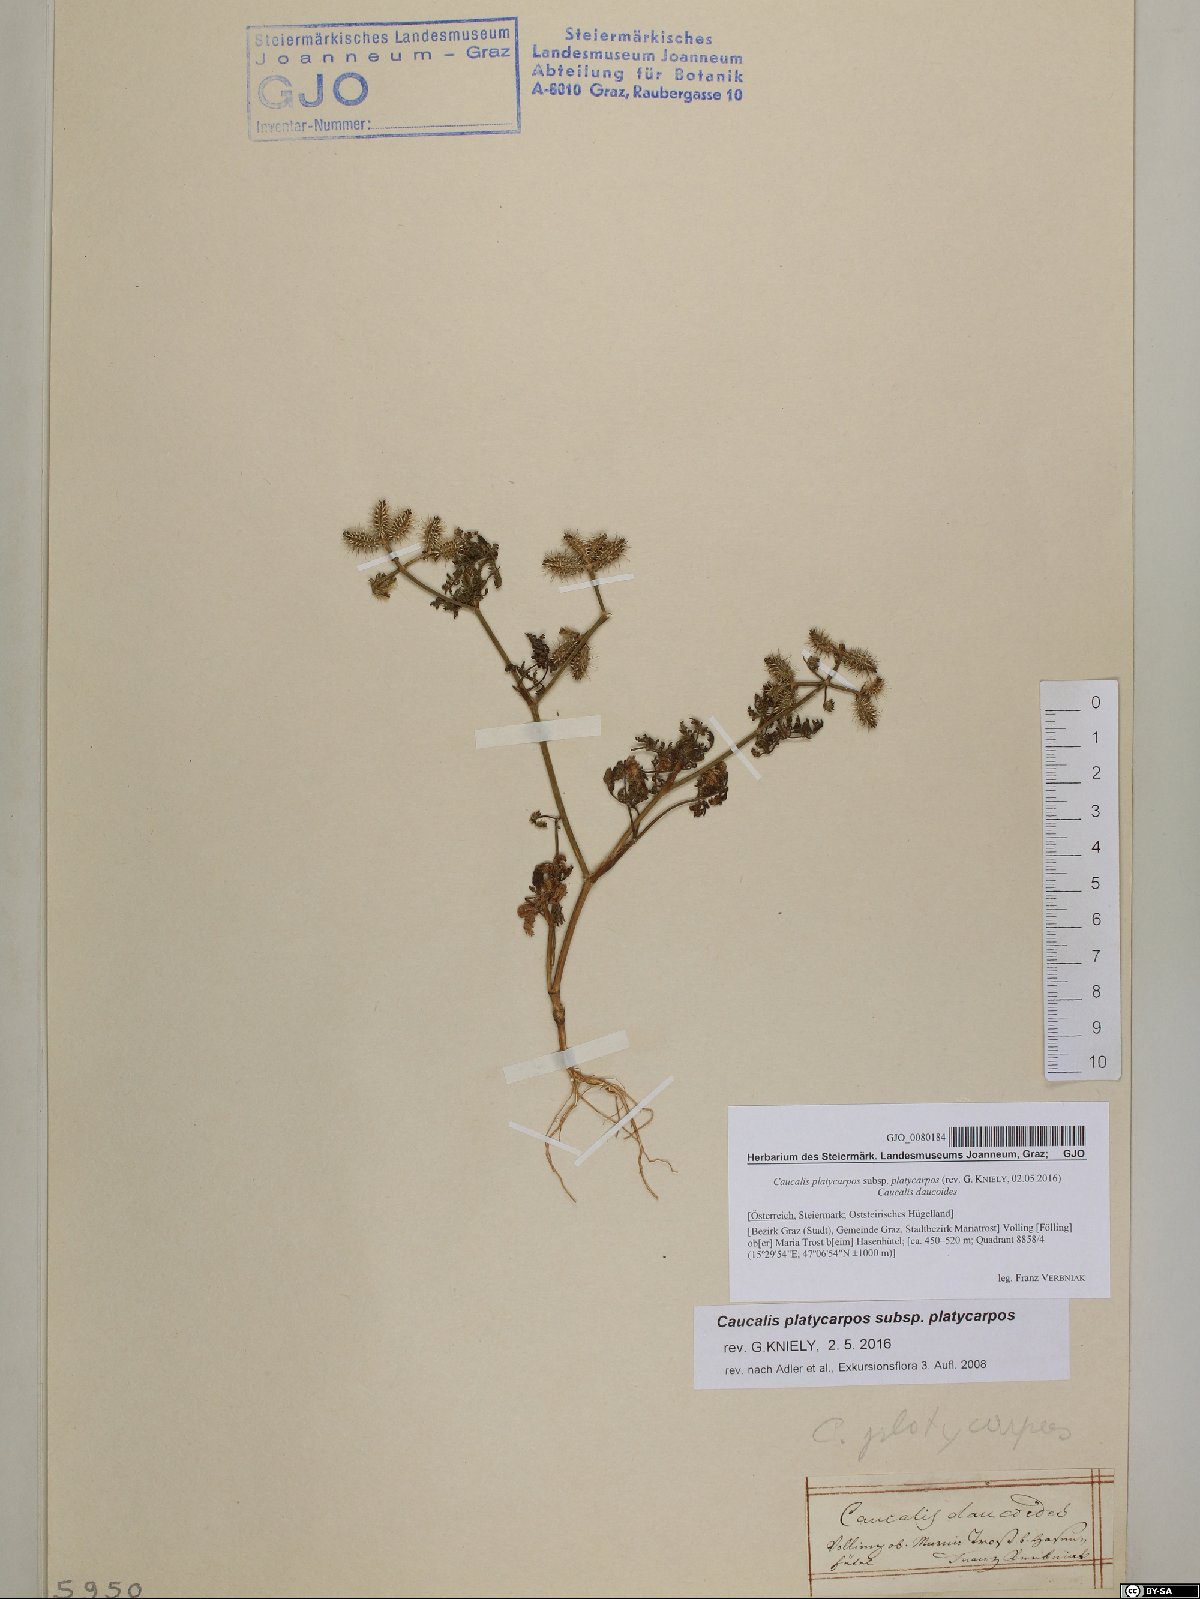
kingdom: Plantae
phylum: Tracheophyta
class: Magnoliopsida
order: Apiales
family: Apiaceae
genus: Caucalis
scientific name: Caucalis platycarpos
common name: Small bur-parsley
